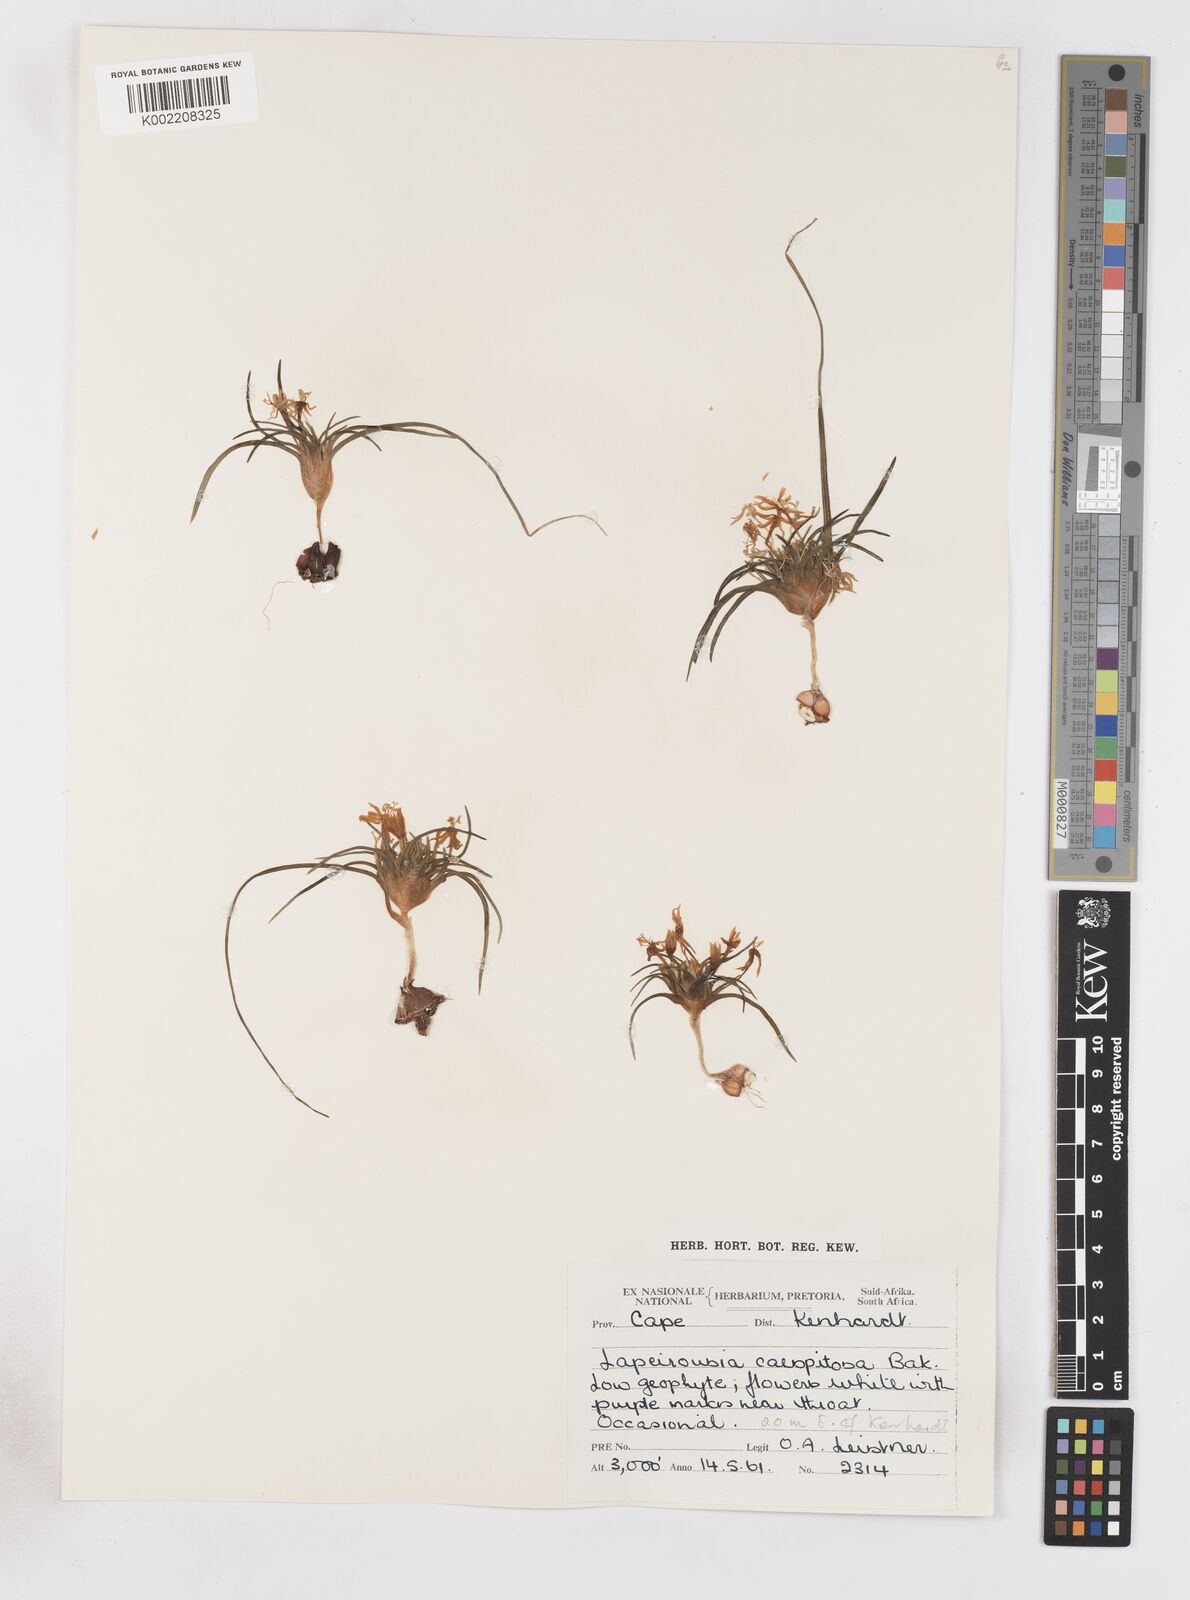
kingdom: Plantae
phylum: Tracheophyta
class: Liliopsida
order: Asparagales
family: Iridaceae
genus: Lapeirousia
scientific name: Lapeirousia plicata
